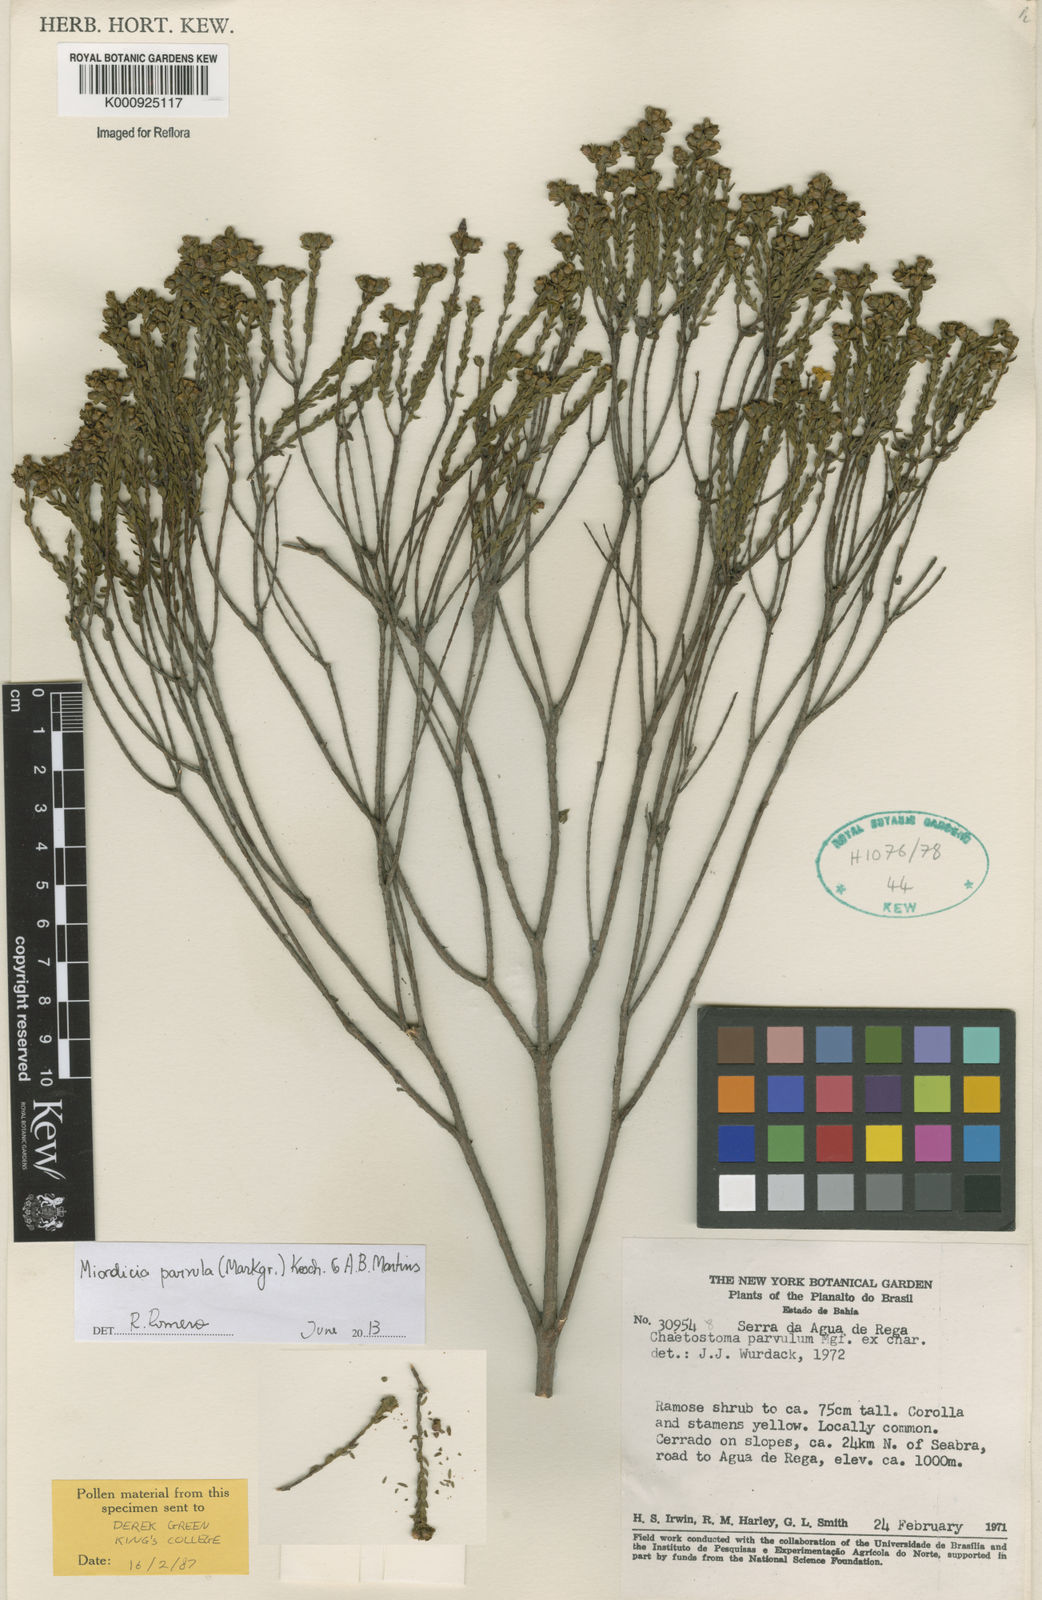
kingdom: Plantae
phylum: Tracheophyta
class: Magnoliopsida
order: Myrtales
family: Melastomataceae
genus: Microlicia
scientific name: Microlicia parvula
